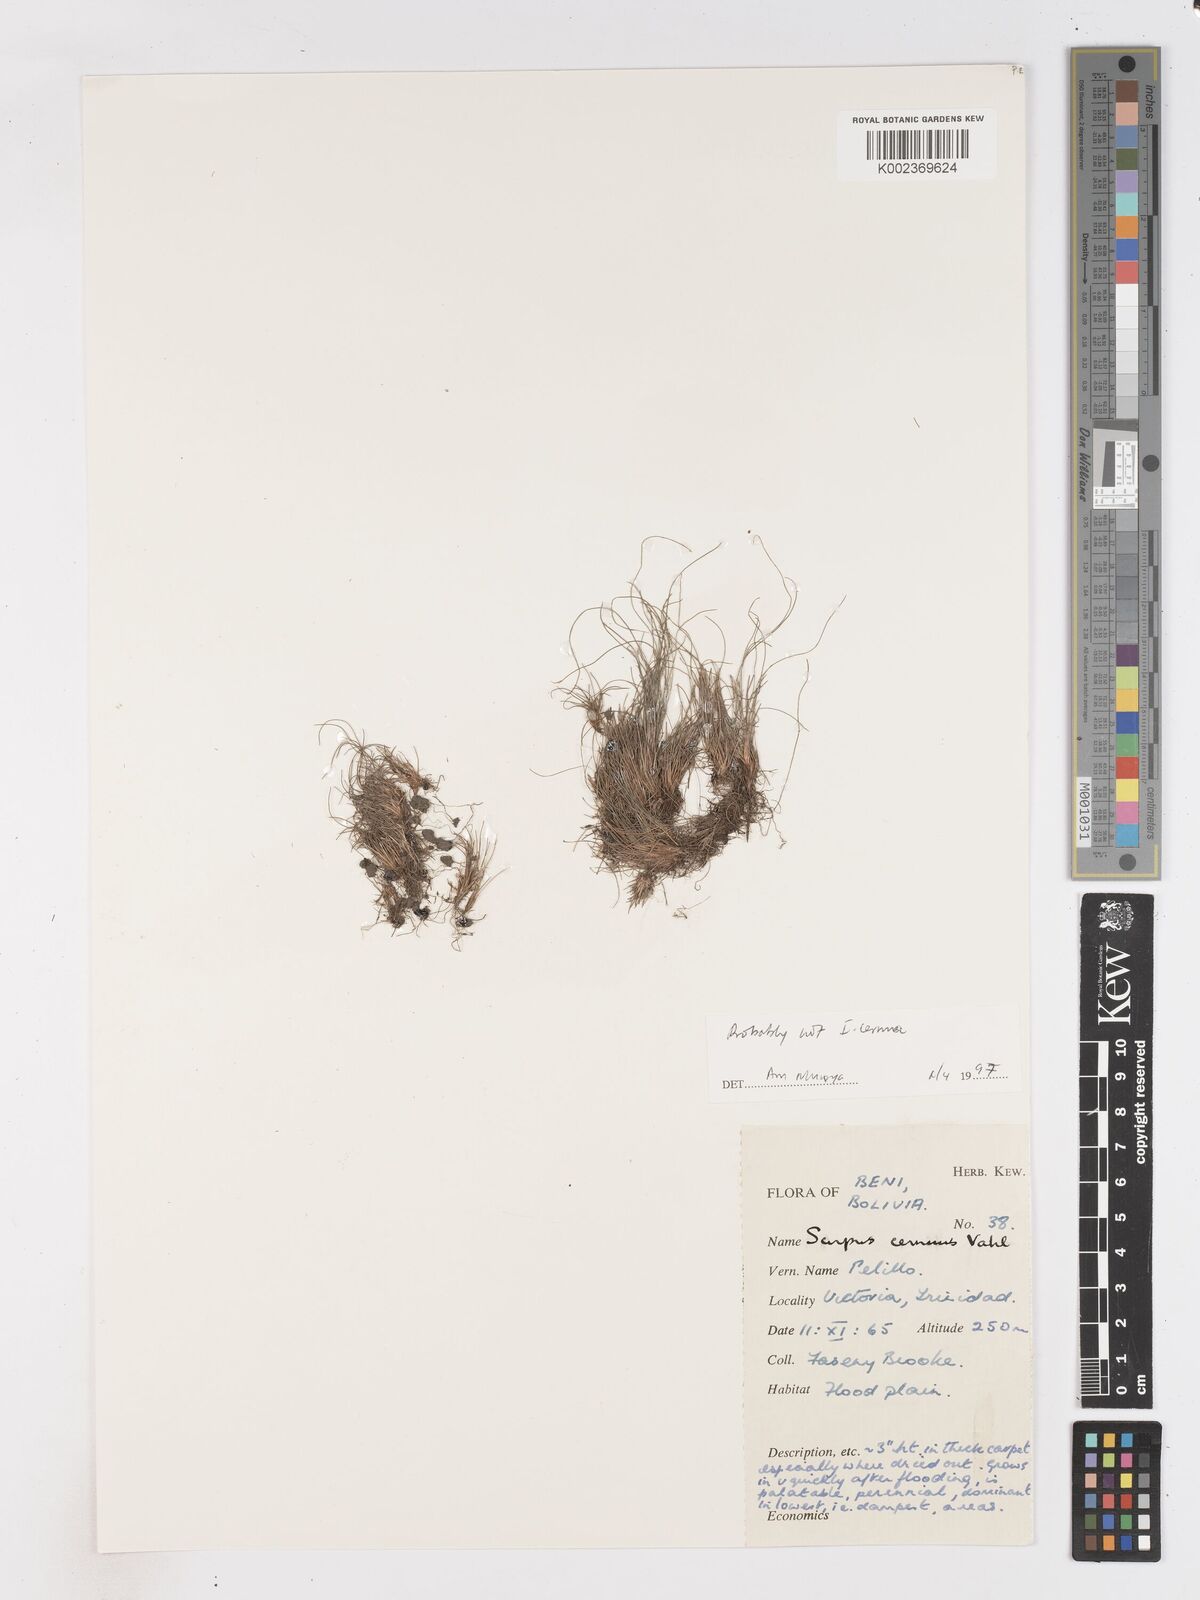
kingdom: Plantae
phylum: Tracheophyta
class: Liliopsida
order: Poales
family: Cyperaceae
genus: Isolepis
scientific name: Isolepis cernua
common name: Slender club-rush
